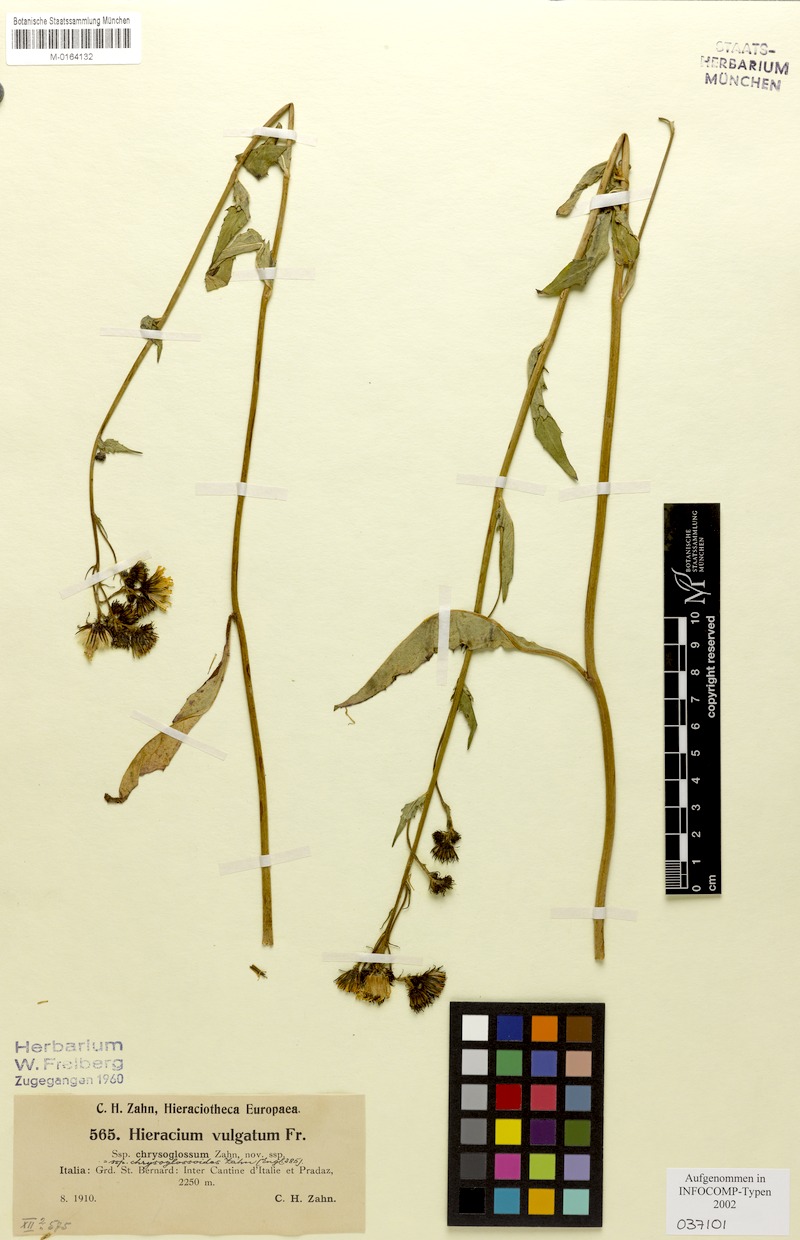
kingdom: Plantae
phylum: Tracheophyta
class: Magnoliopsida
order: Asterales
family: Asteraceae
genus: Hieracium
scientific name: Hieracium lachenalii
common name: Common hawkweed
